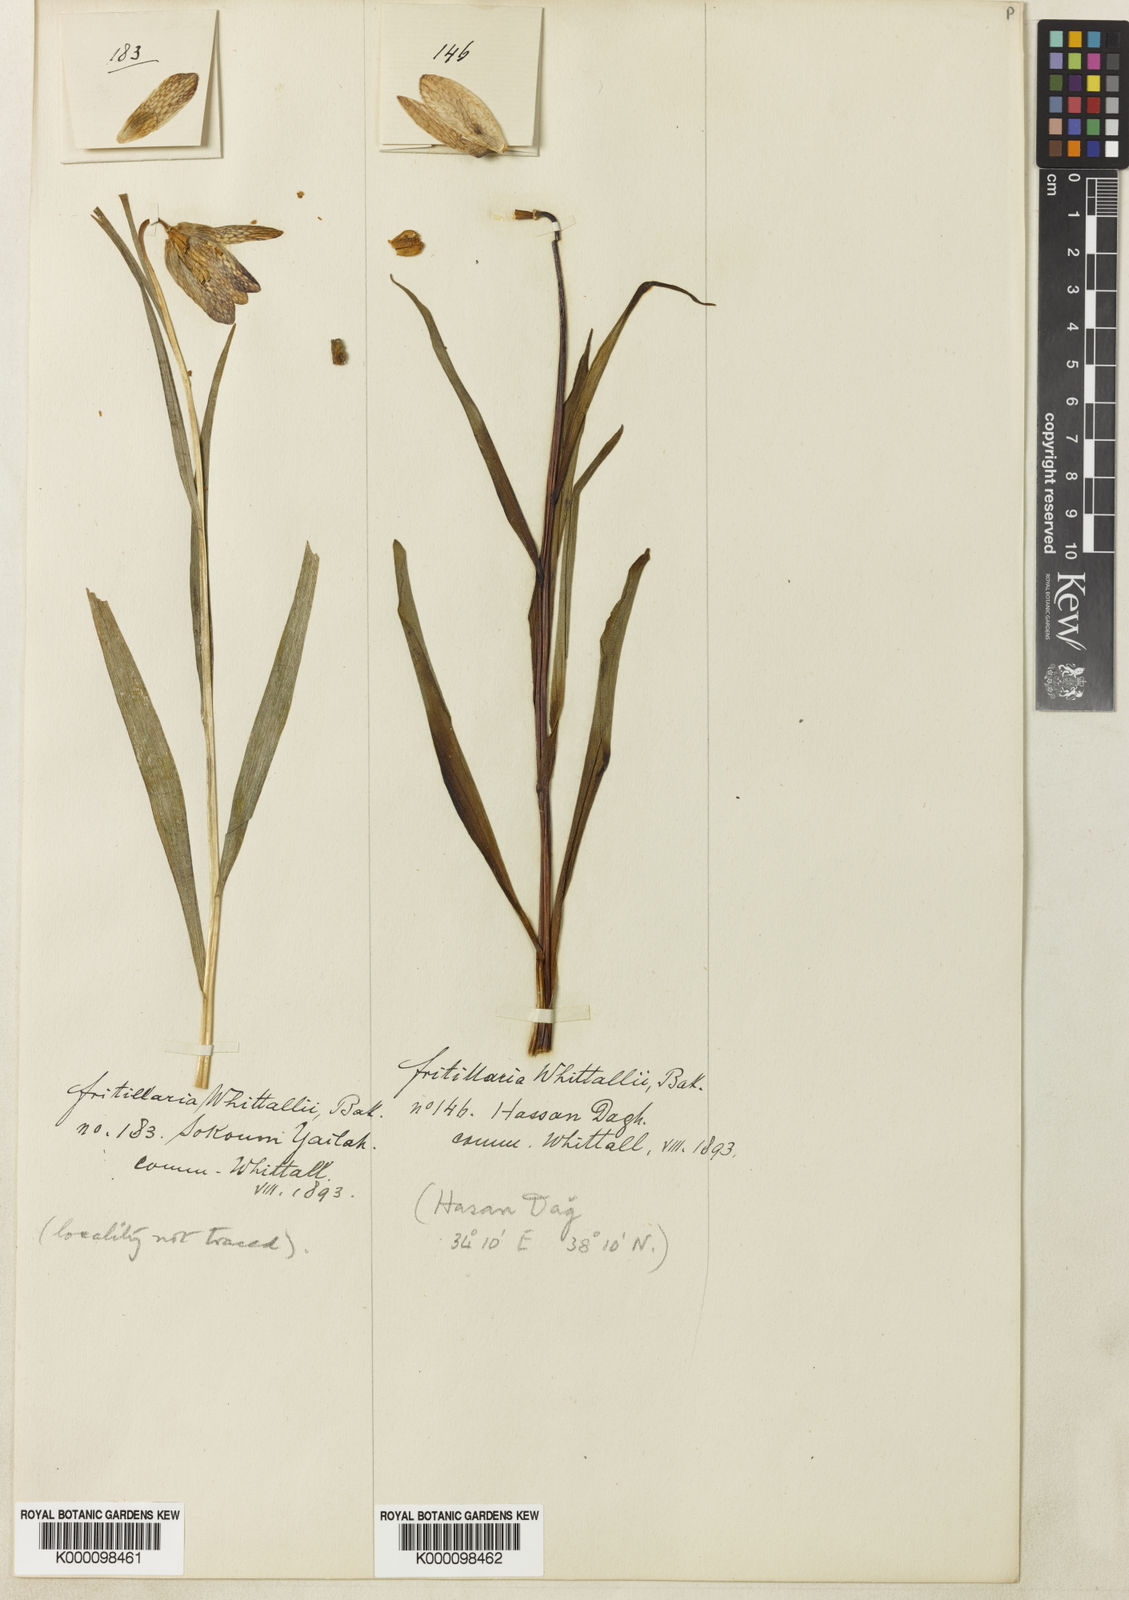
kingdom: Plantae
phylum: Tracheophyta
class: Liliopsida
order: Liliales
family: Liliaceae
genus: Fritillaria
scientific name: Fritillaria whittallii
